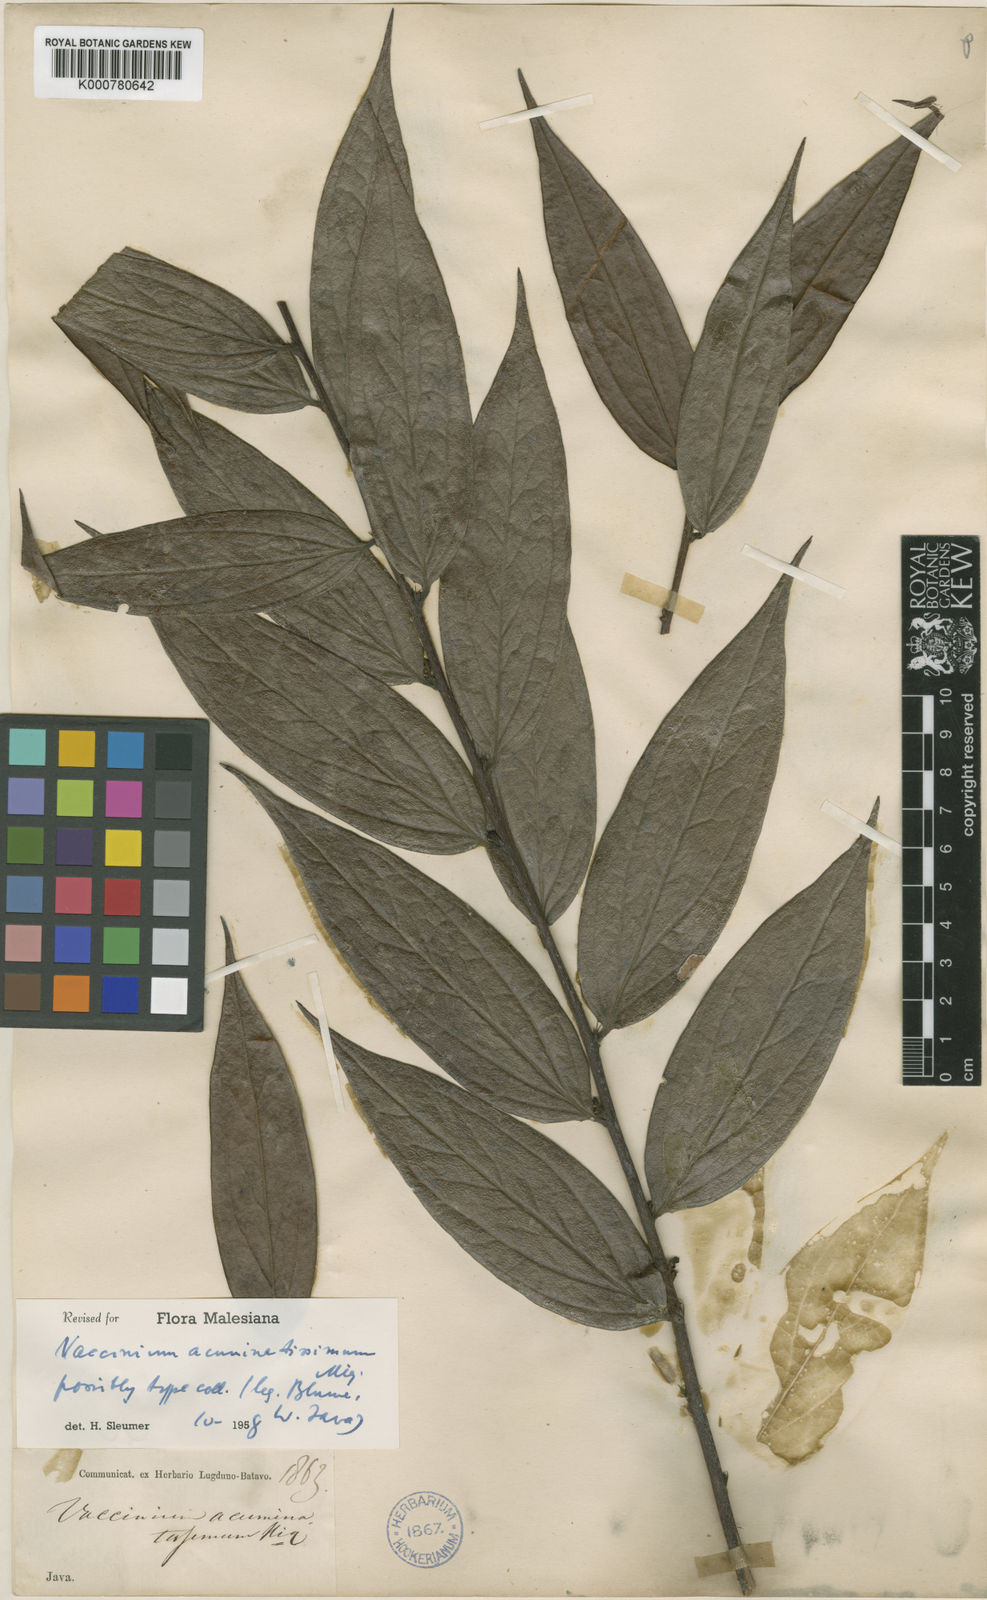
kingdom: Plantae
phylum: Tracheophyta
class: Magnoliopsida
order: Ericales
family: Ericaceae
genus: Rigiolepis
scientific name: Rigiolepis lanceolata
